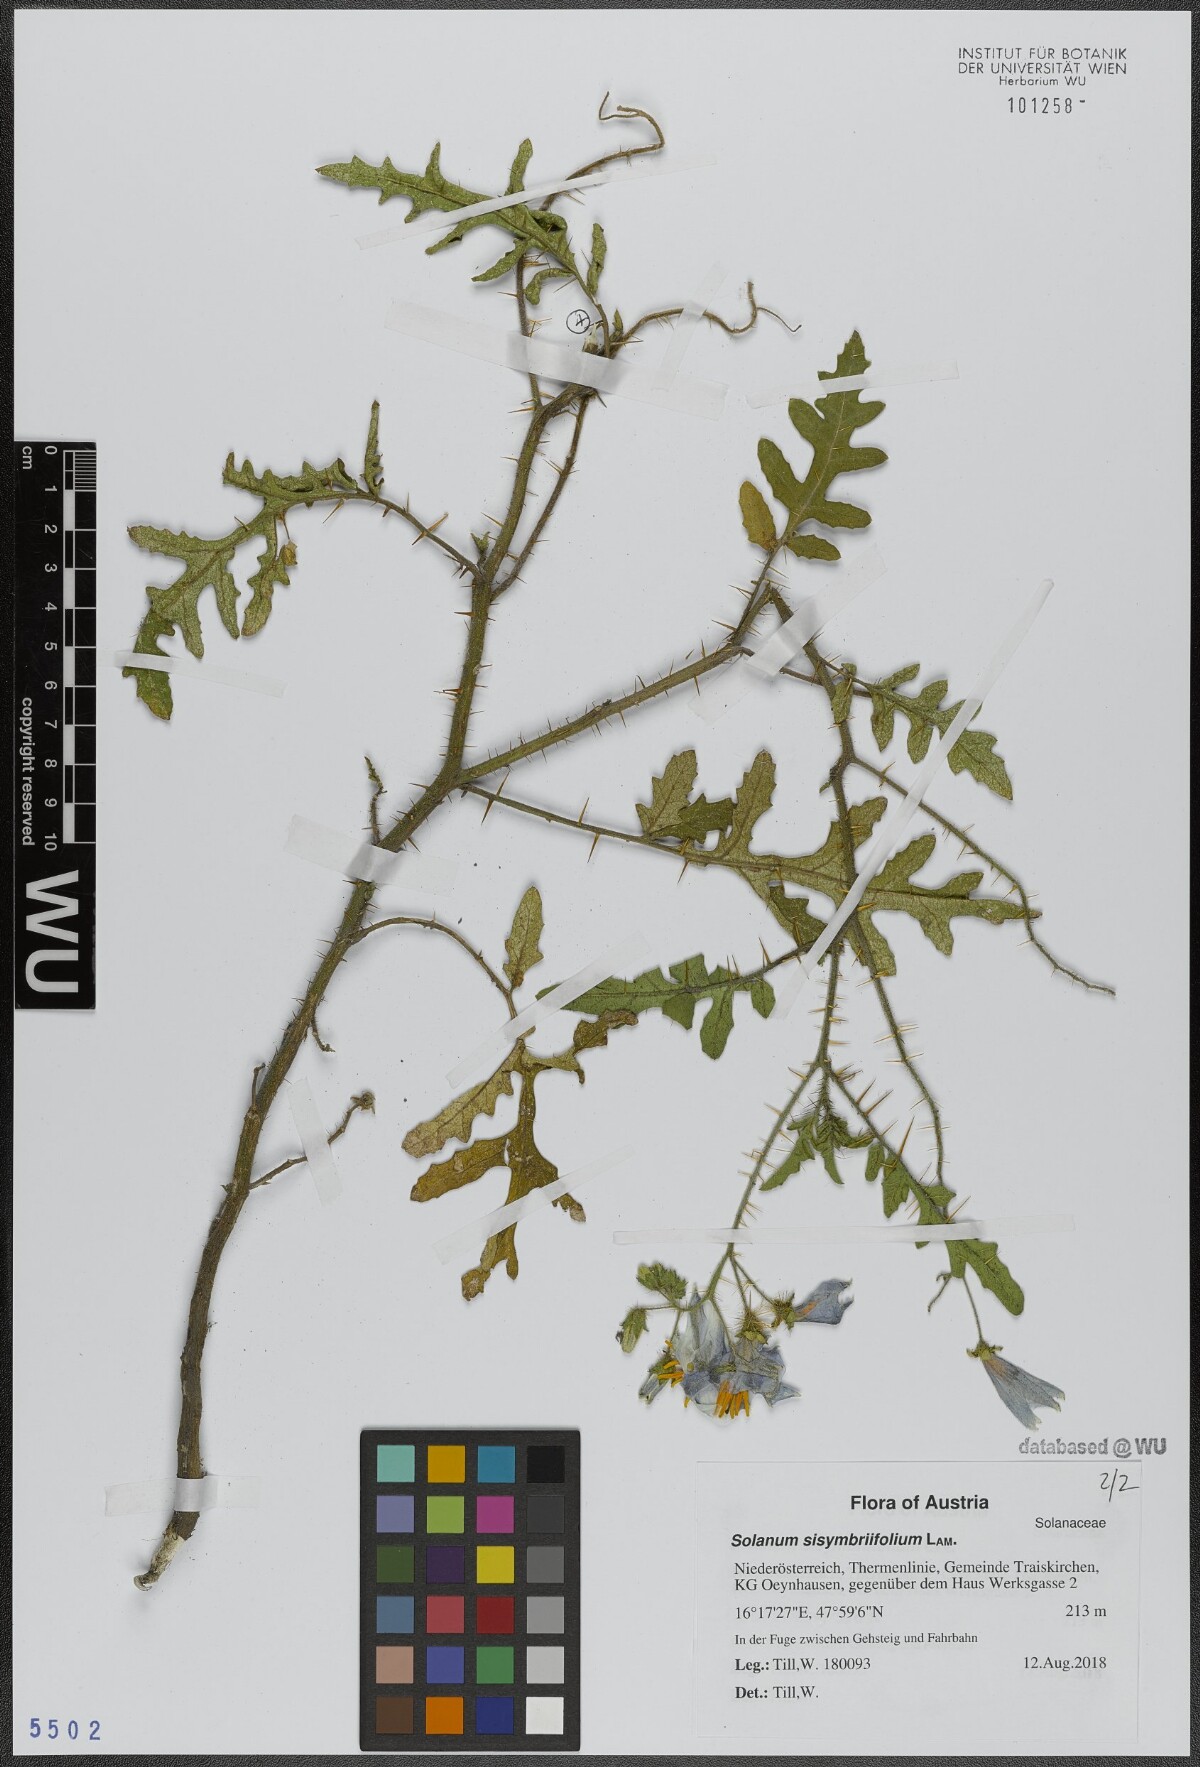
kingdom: Plantae
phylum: Tracheophyta
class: Magnoliopsida
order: Solanales
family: Solanaceae
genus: Solanum
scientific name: Solanum sisymbriifolium
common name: Red buffalo-bur
